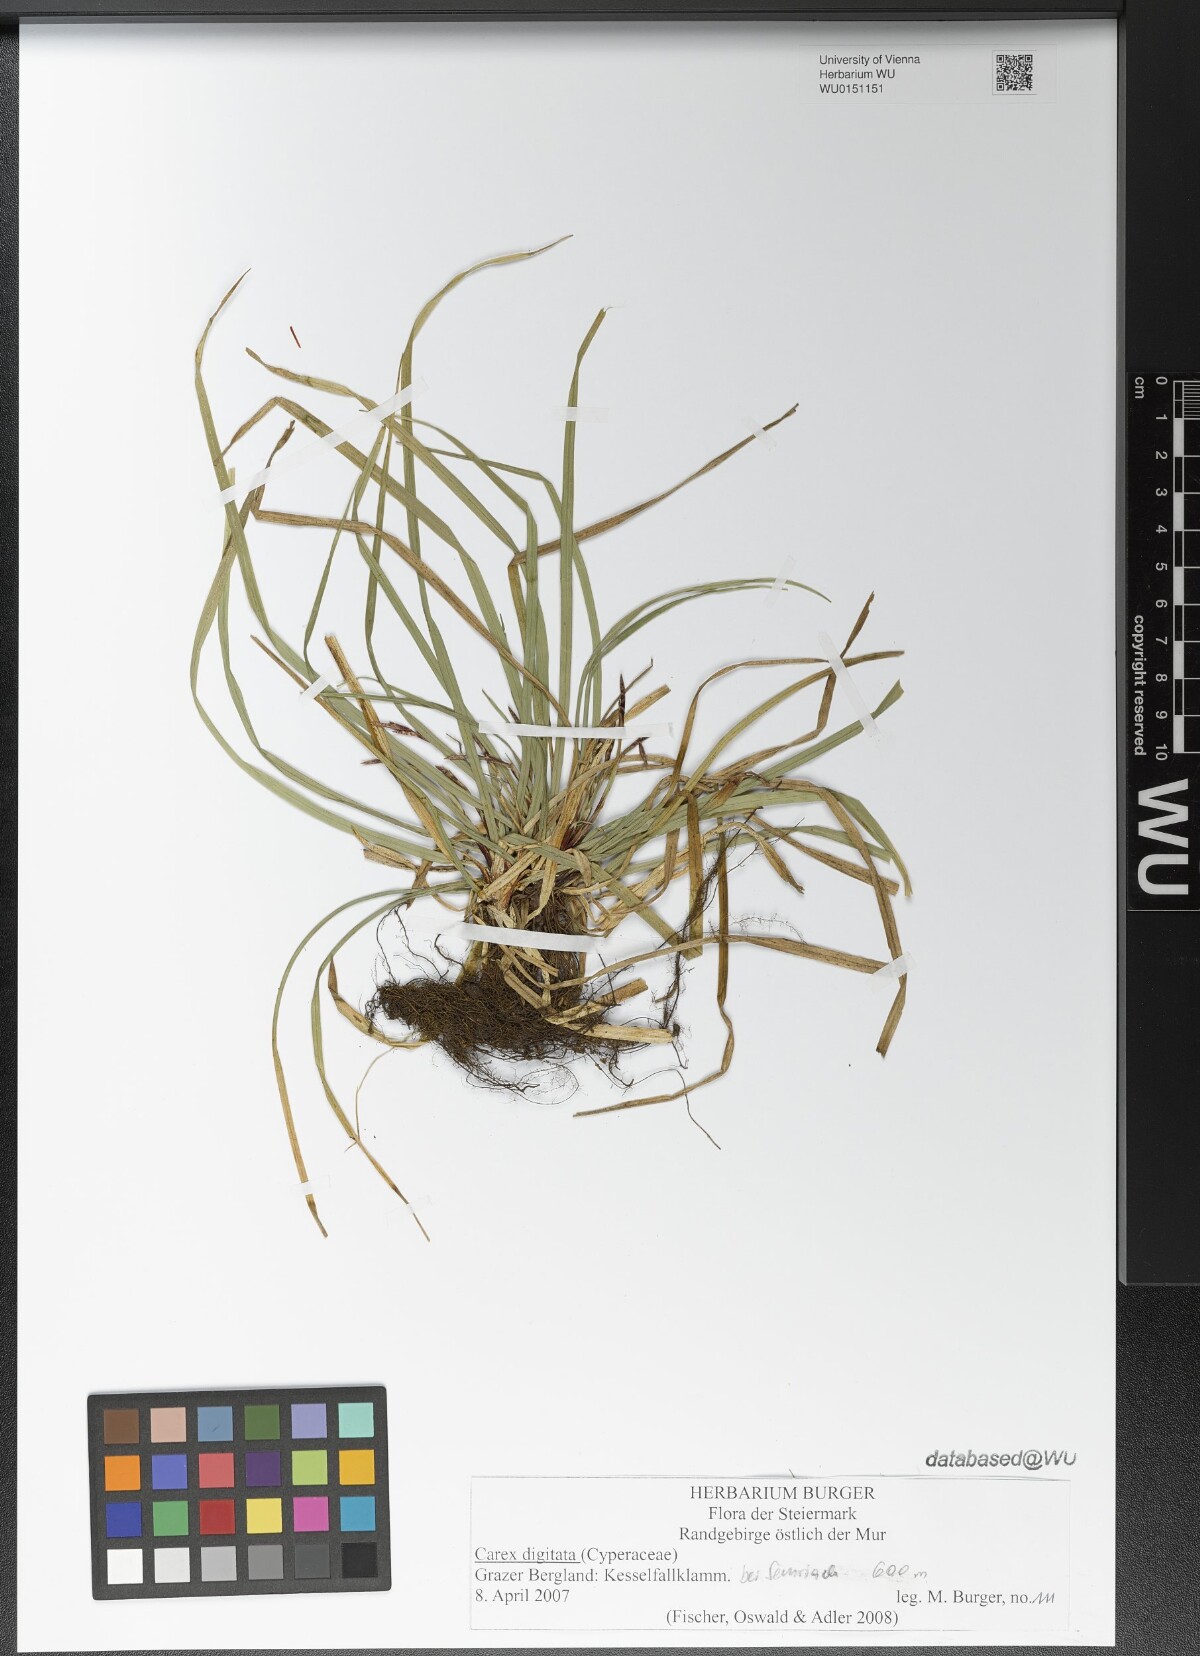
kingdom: Plantae
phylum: Tracheophyta
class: Liliopsida
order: Poales
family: Cyperaceae
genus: Carex
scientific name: Carex digitata
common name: Fingered sedge
